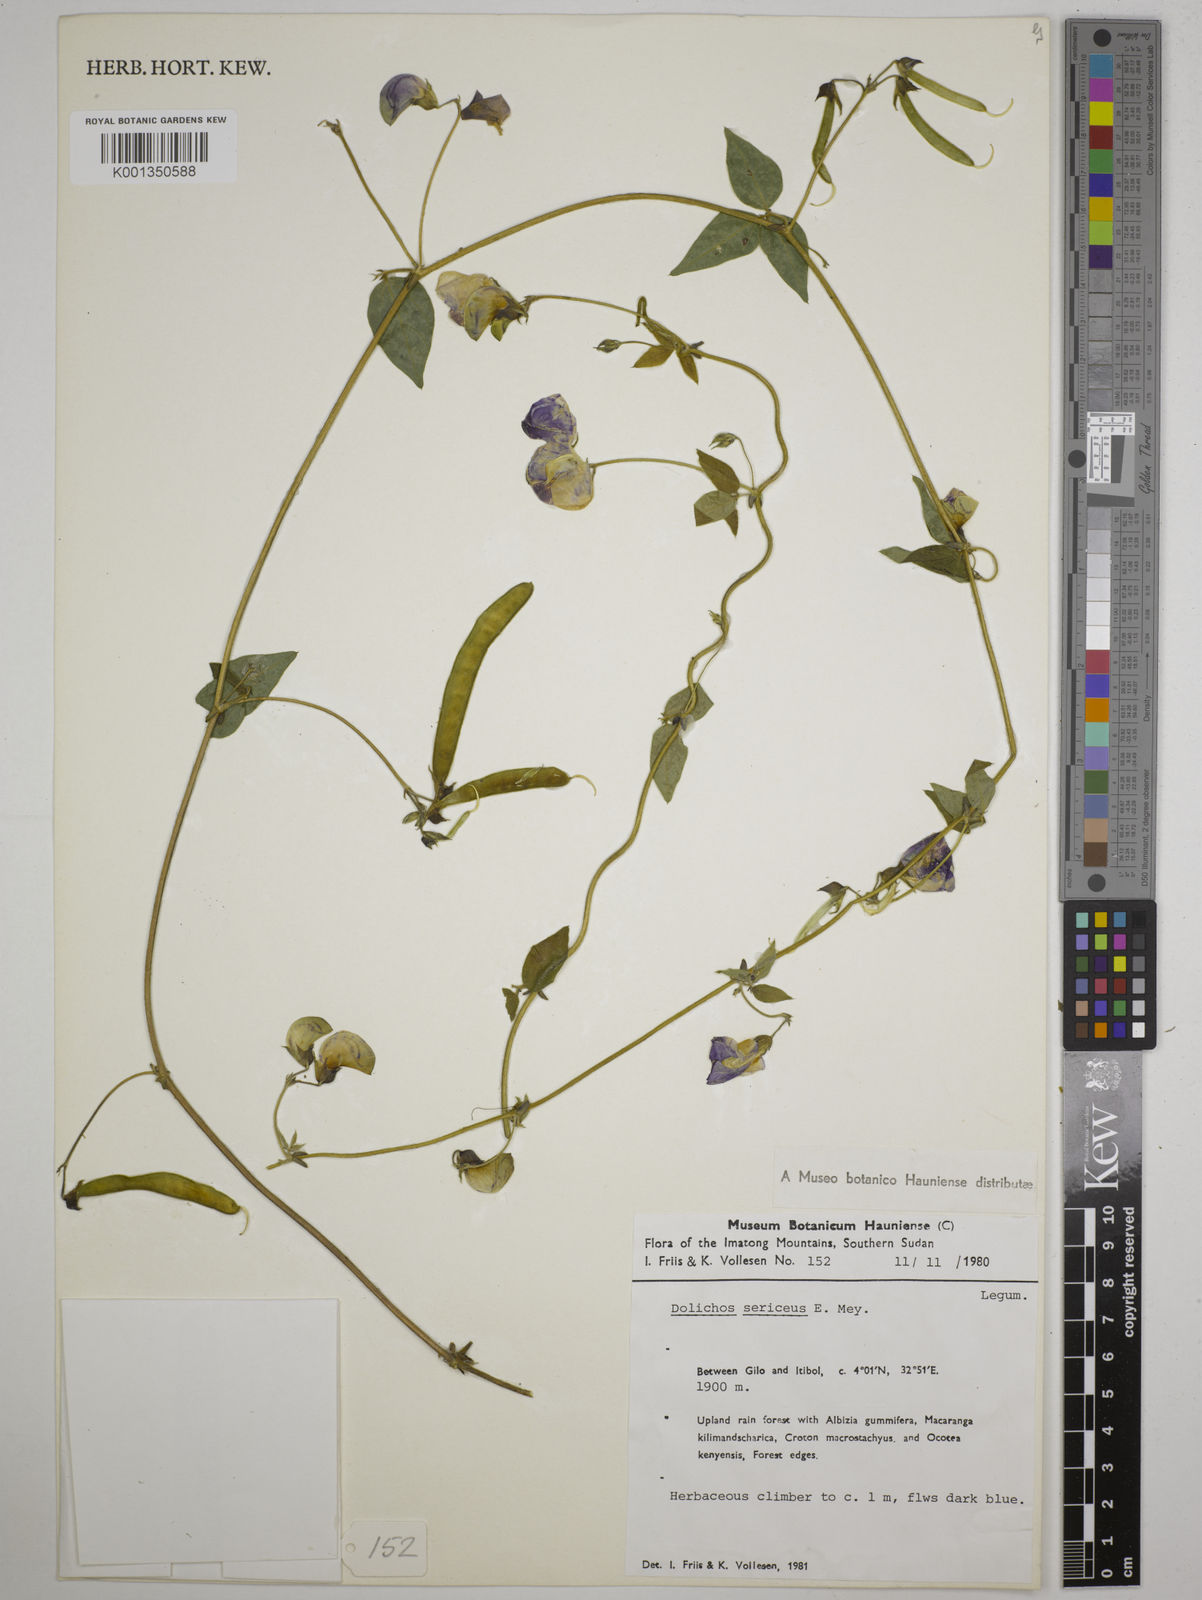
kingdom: Plantae
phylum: Tracheophyta
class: Magnoliopsida
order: Fabales
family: Fabaceae
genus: Dolichos
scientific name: Dolichos sericeus
